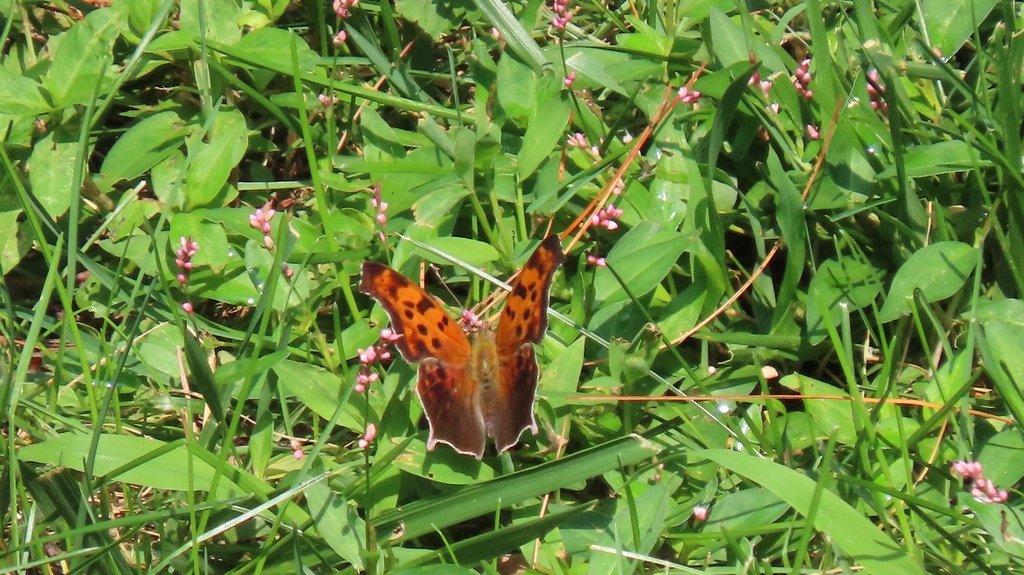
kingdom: Animalia
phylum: Arthropoda
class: Insecta
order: Lepidoptera
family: Nymphalidae
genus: Polygonia
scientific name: Polygonia interrogationis
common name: Question Mark
